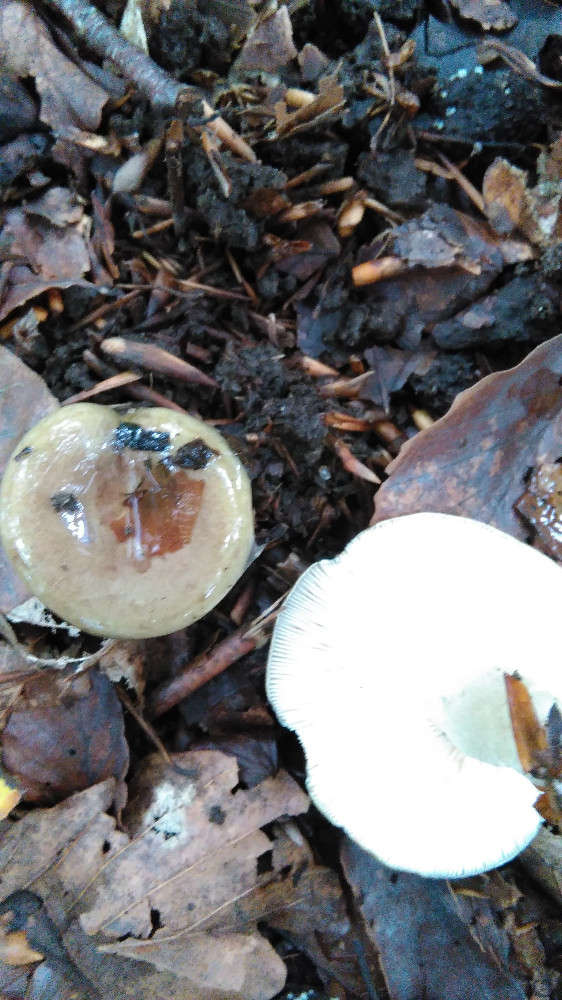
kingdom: Fungi
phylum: Basidiomycota
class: Agaricomycetes
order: Russulales
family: Russulaceae
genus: Lactarius
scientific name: Lactarius blennius
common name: dråbeplettet mælkehat
